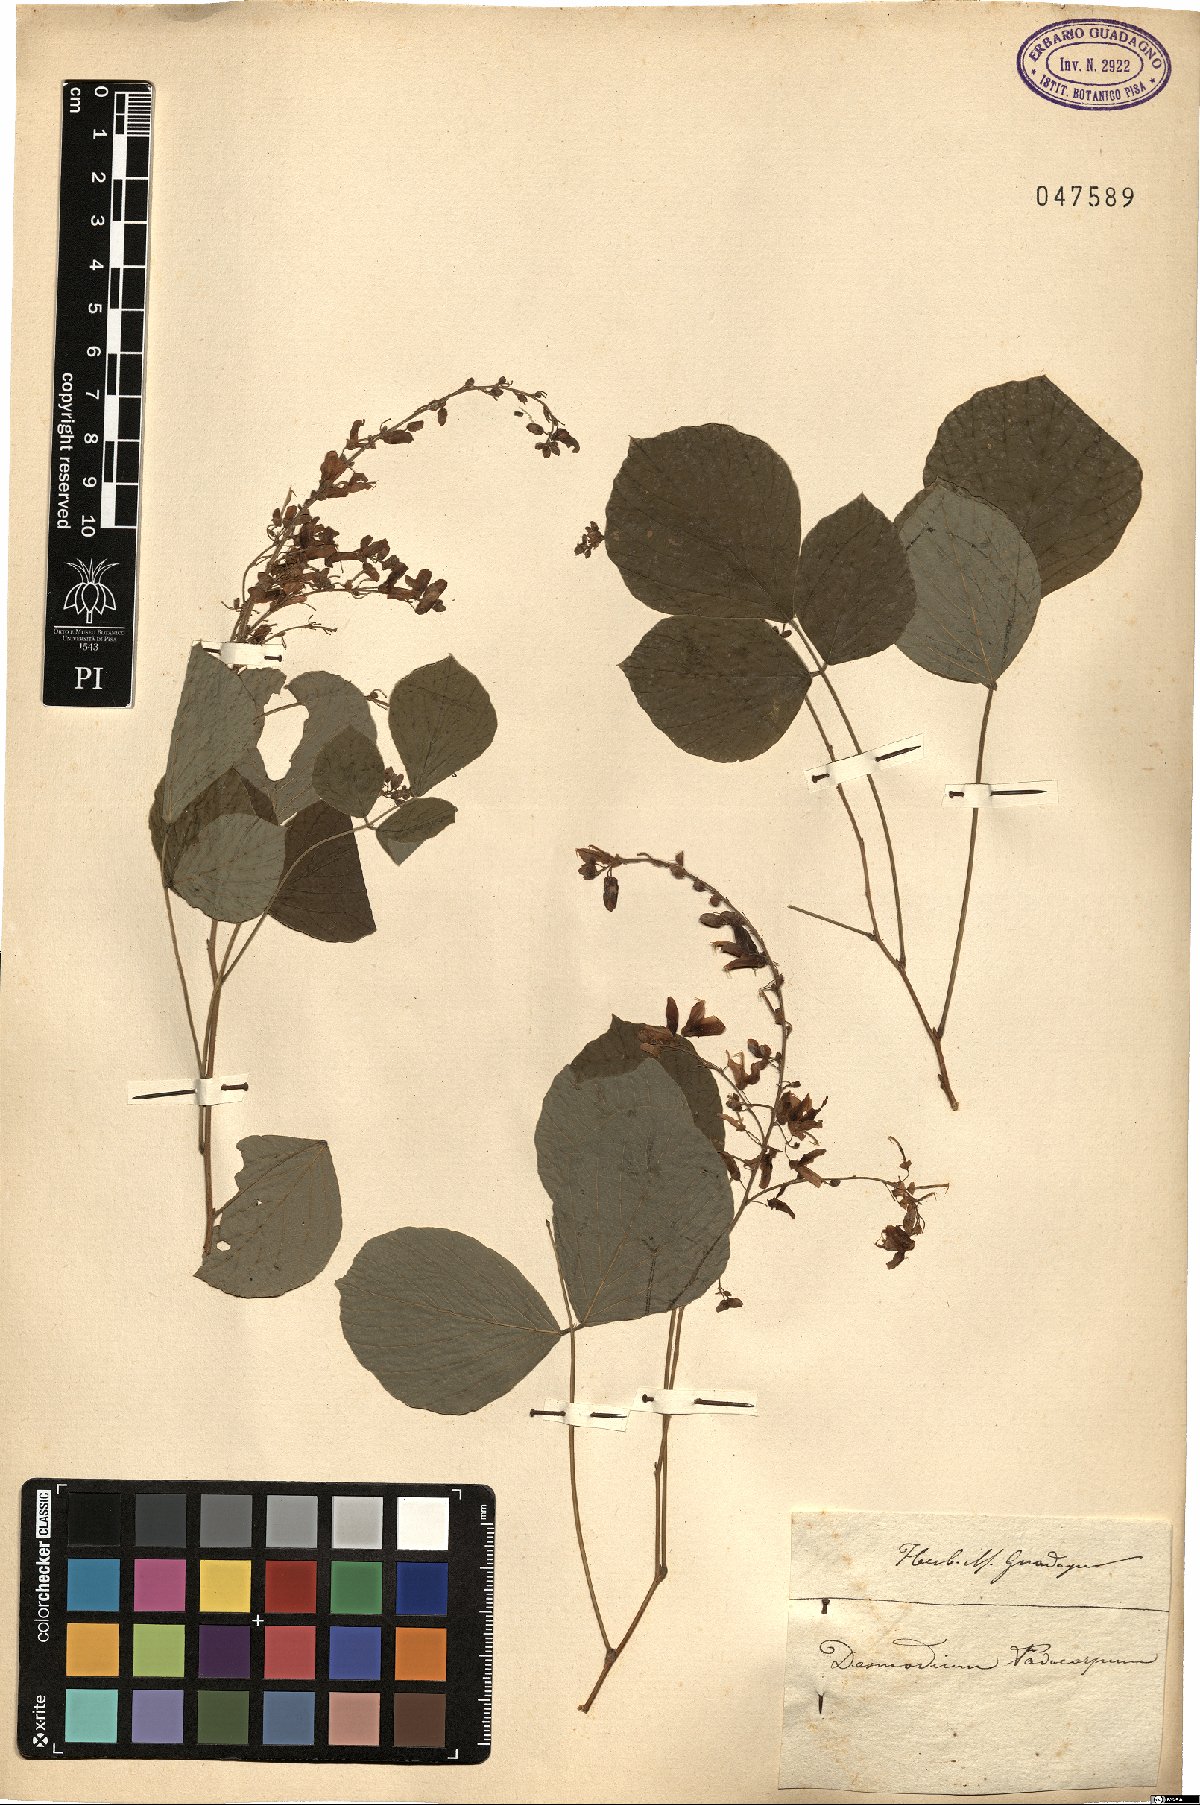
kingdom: Plantae
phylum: Tracheophyta
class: Magnoliopsida
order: Fabales
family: Fabaceae
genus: Hylodesmum
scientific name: Hylodesmum podocarpum
